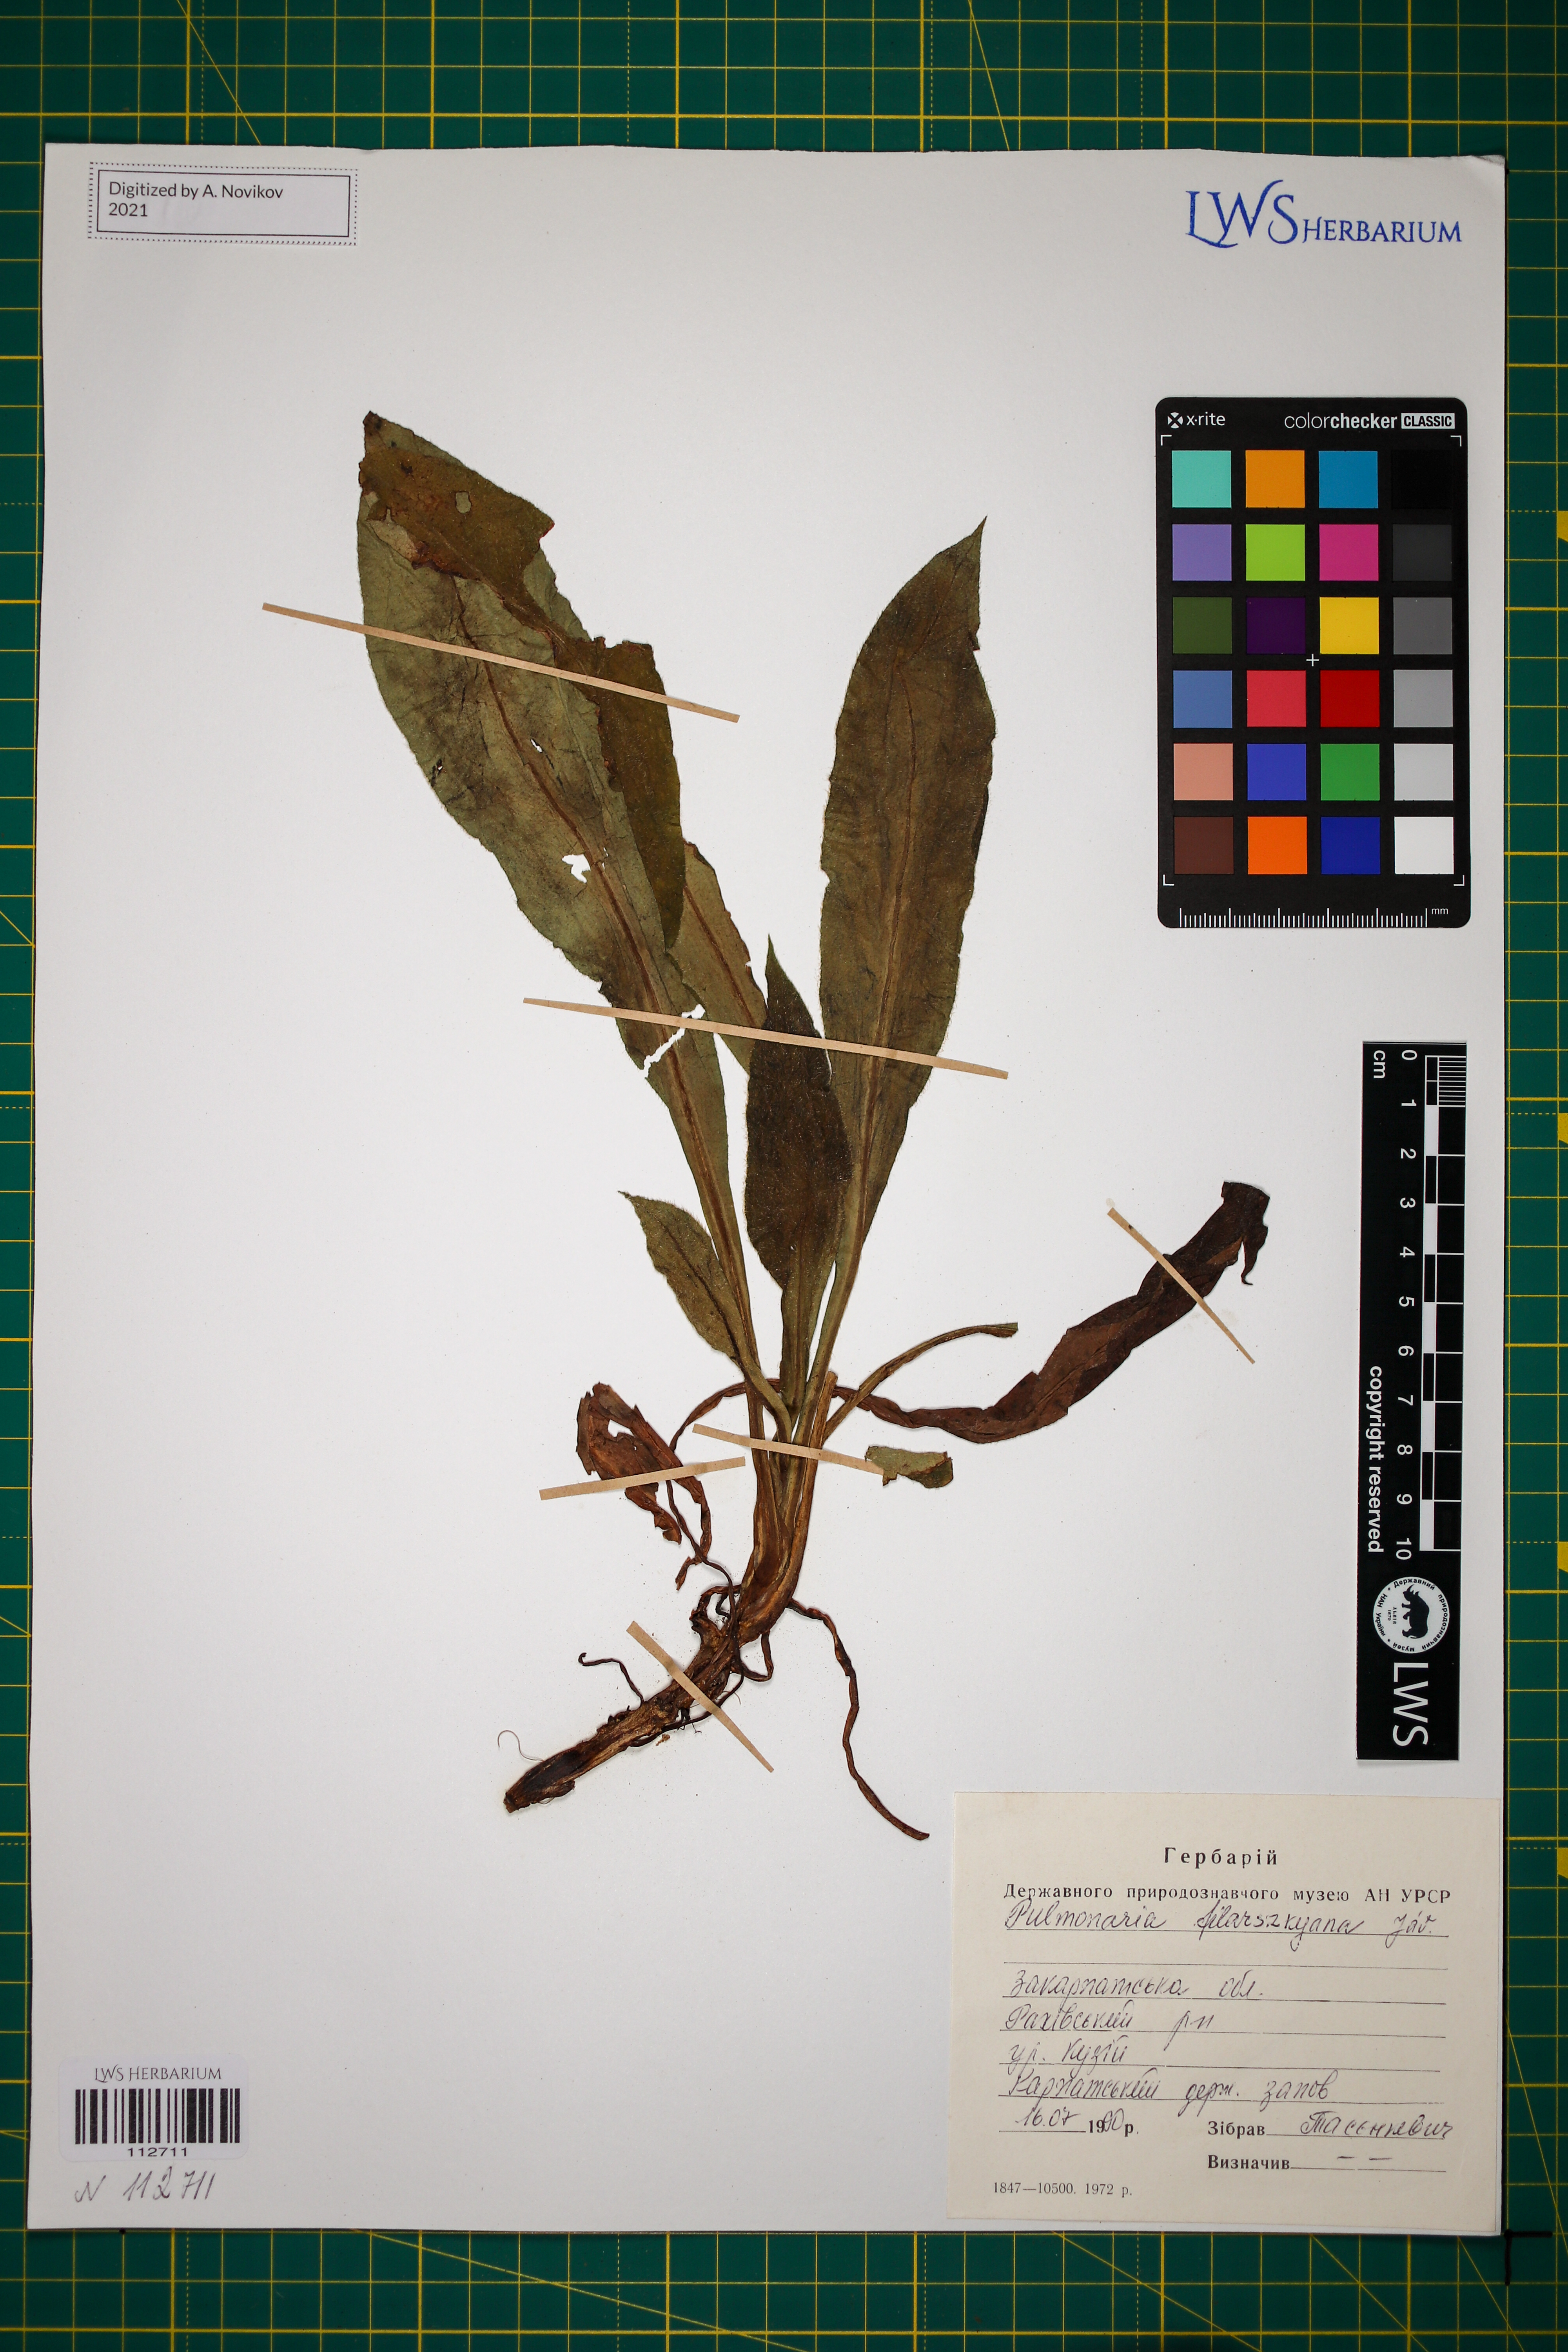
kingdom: Plantae
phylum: Tracheophyta
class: Magnoliopsida
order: Boraginales
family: Boraginaceae
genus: Pulmonaria
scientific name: Pulmonaria filarszkyana
